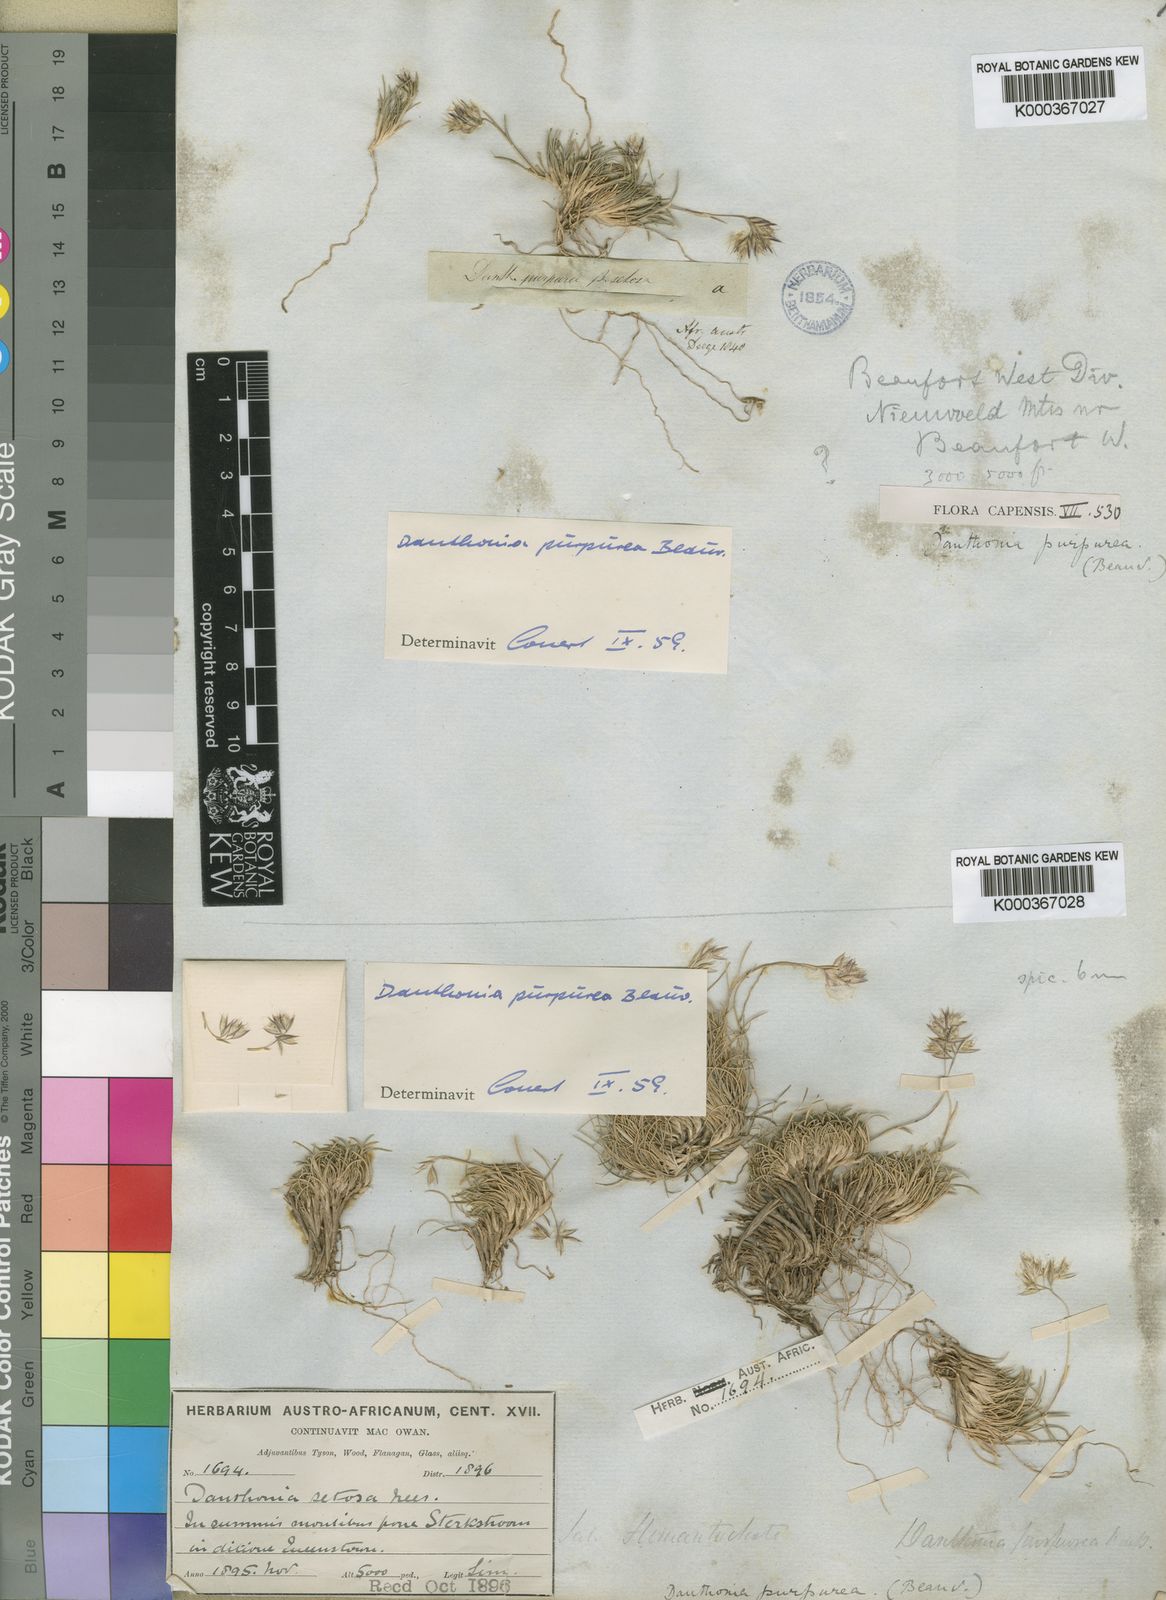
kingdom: Plantae
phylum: Tracheophyta
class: Liliopsida
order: Poales
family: Poaceae
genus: Rytidosperma
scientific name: Rytidosperma
